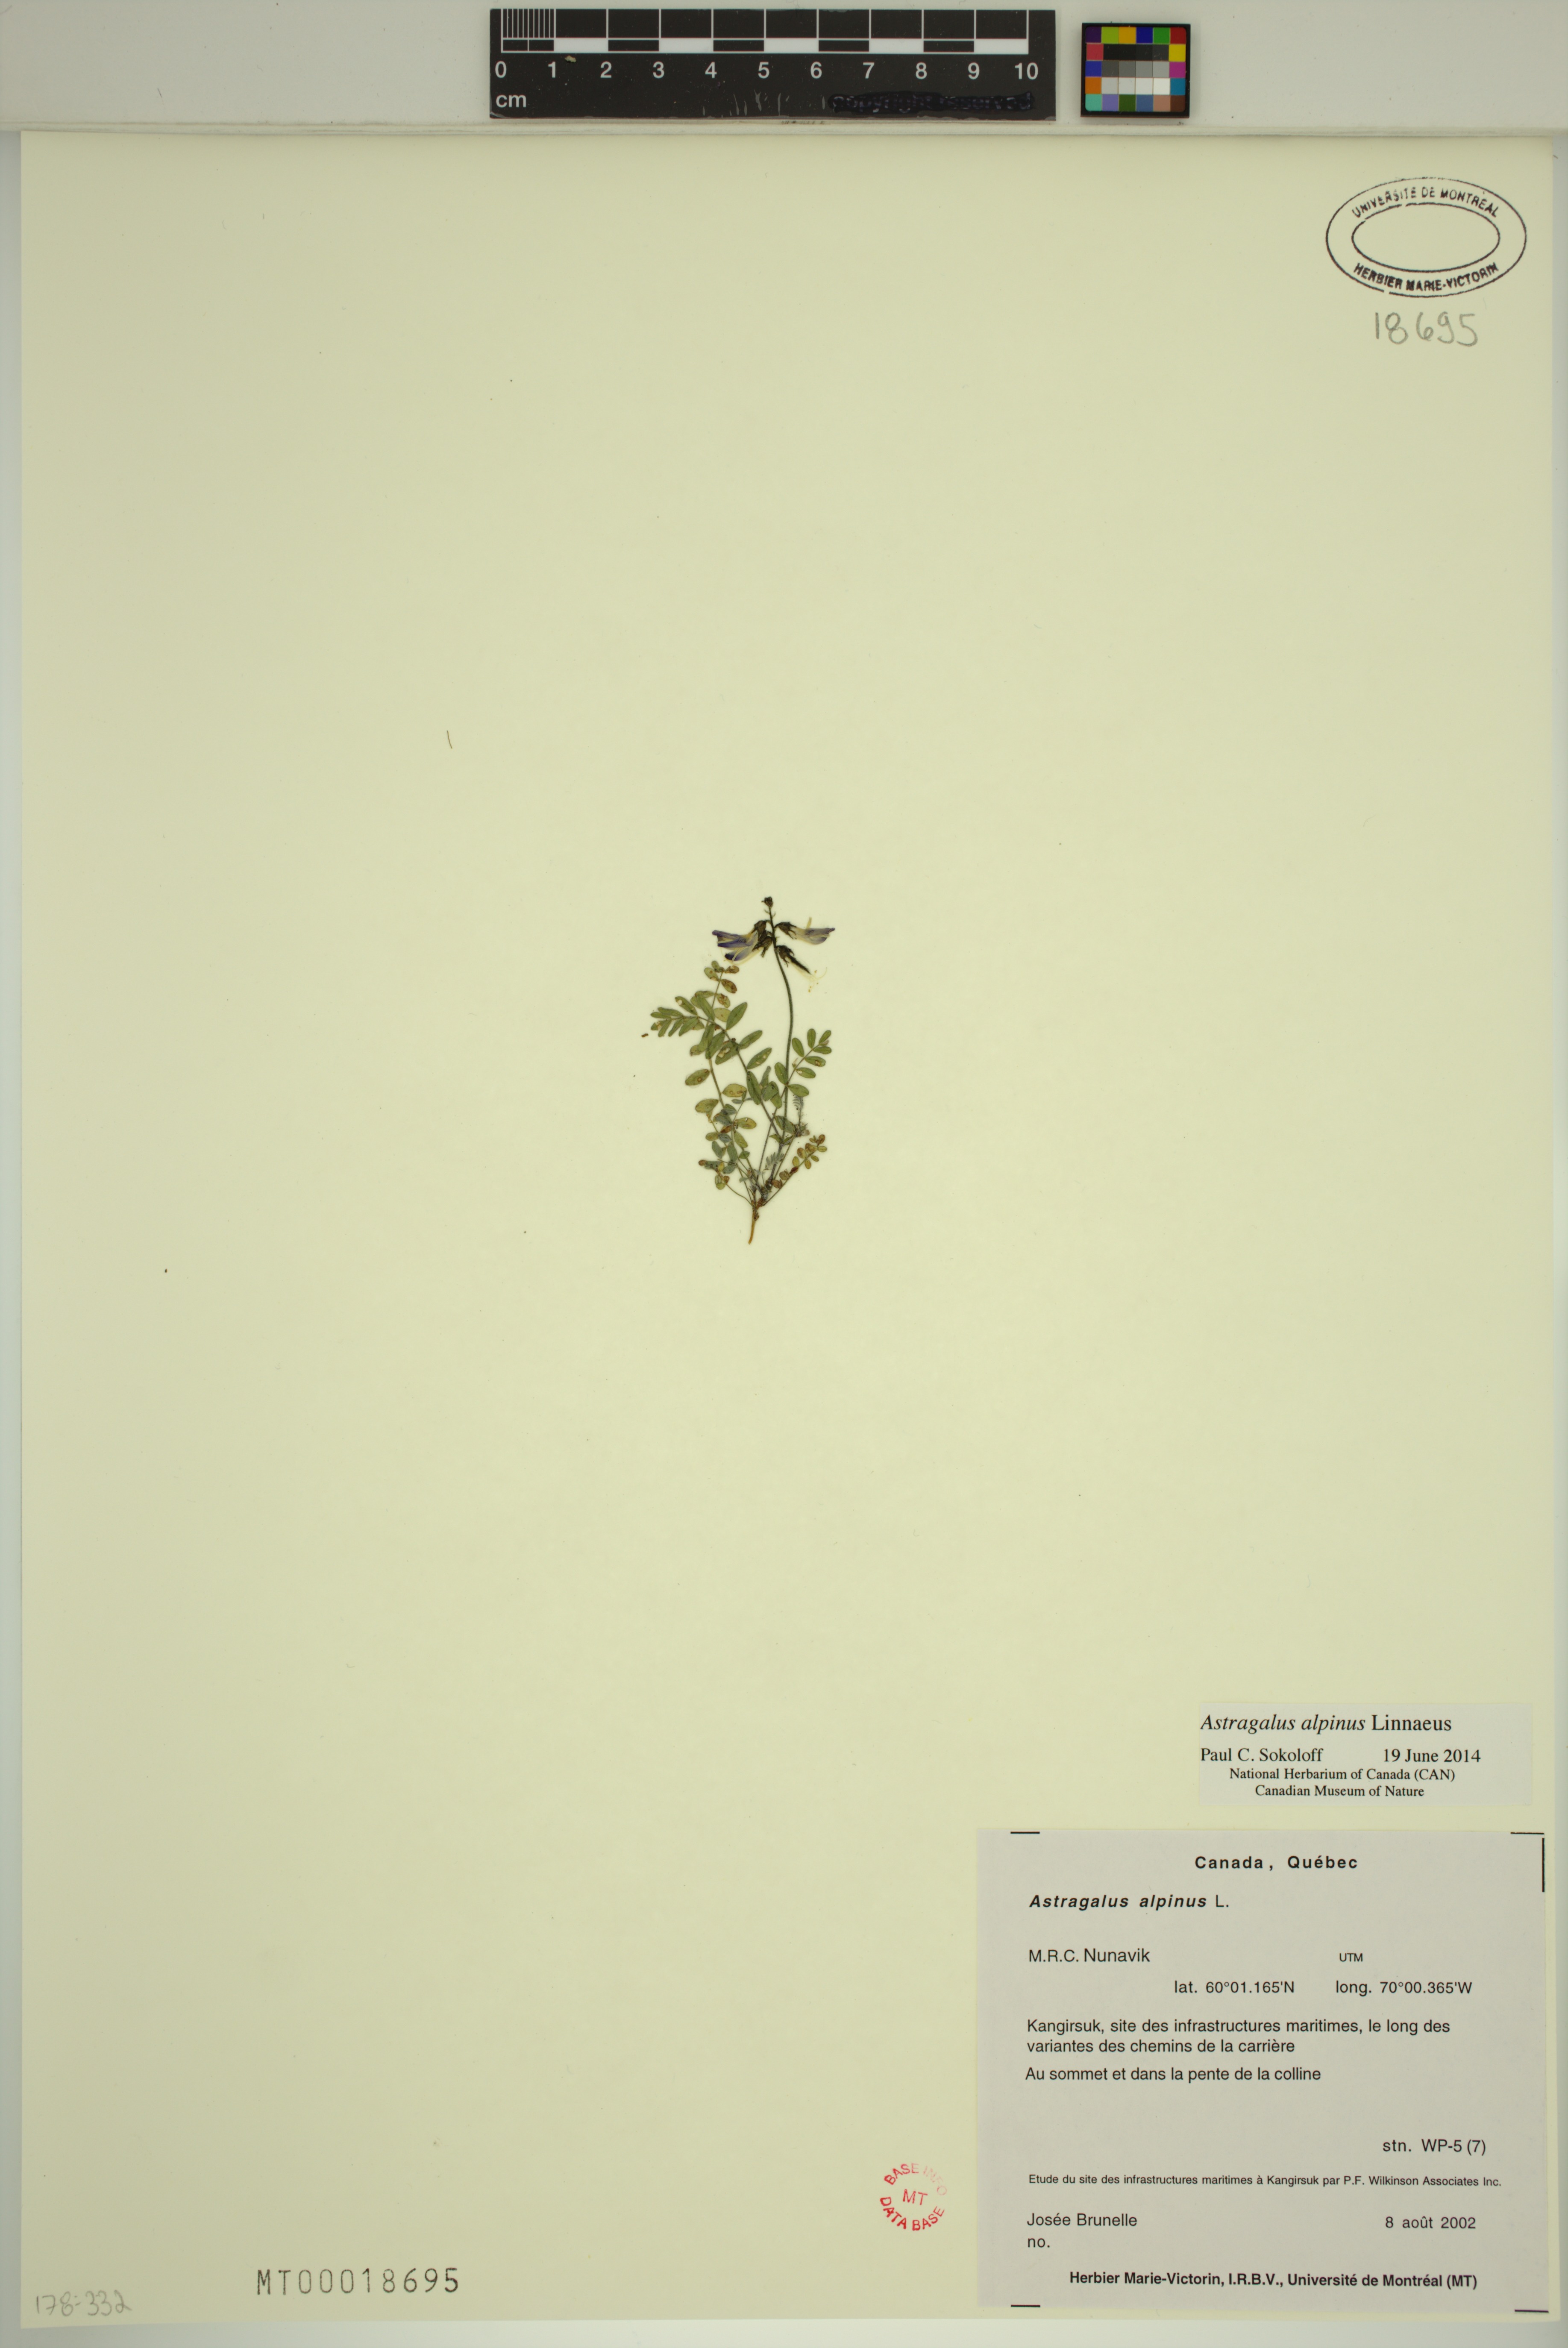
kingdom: Plantae
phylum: Tracheophyta
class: Magnoliopsida
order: Fabales
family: Fabaceae
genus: Astragalus
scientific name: Astragalus alpinus
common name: Alpine milk-vetch
